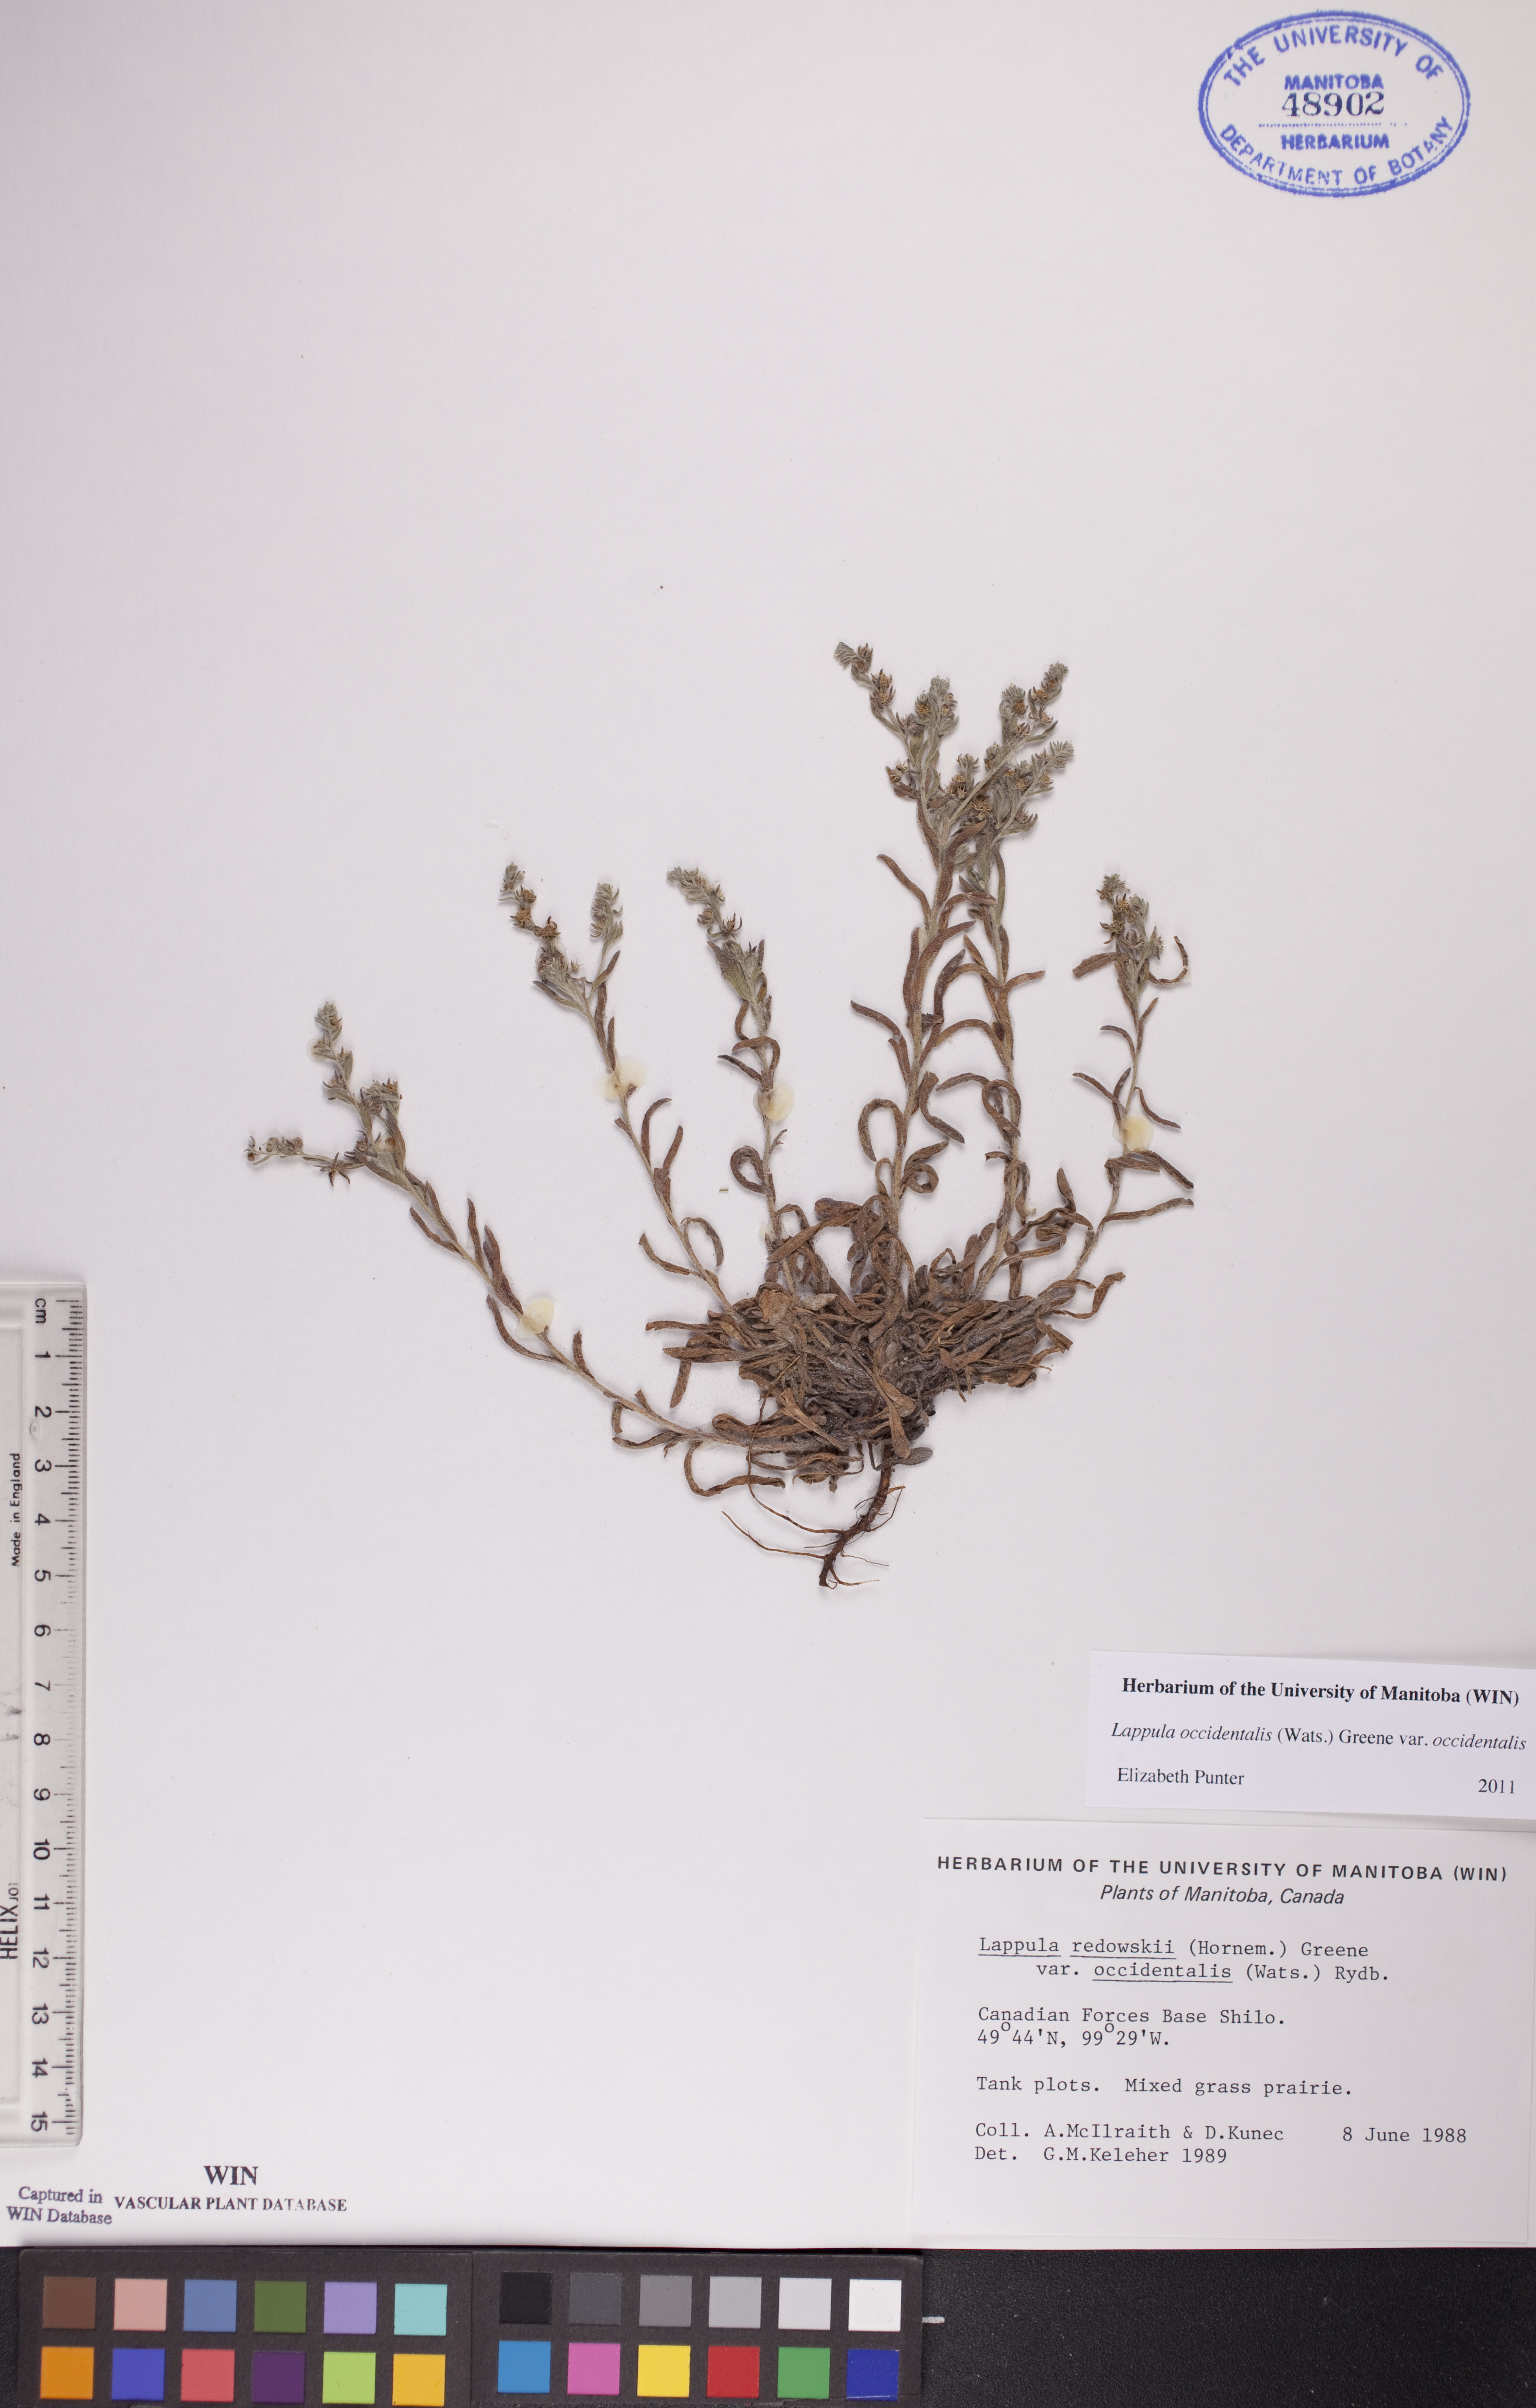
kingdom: Plantae
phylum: Tracheophyta
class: Magnoliopsida
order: Boraginales
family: Boraginaceae
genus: Lappula
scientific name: Lappula occidentalis
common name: Western stickseed
